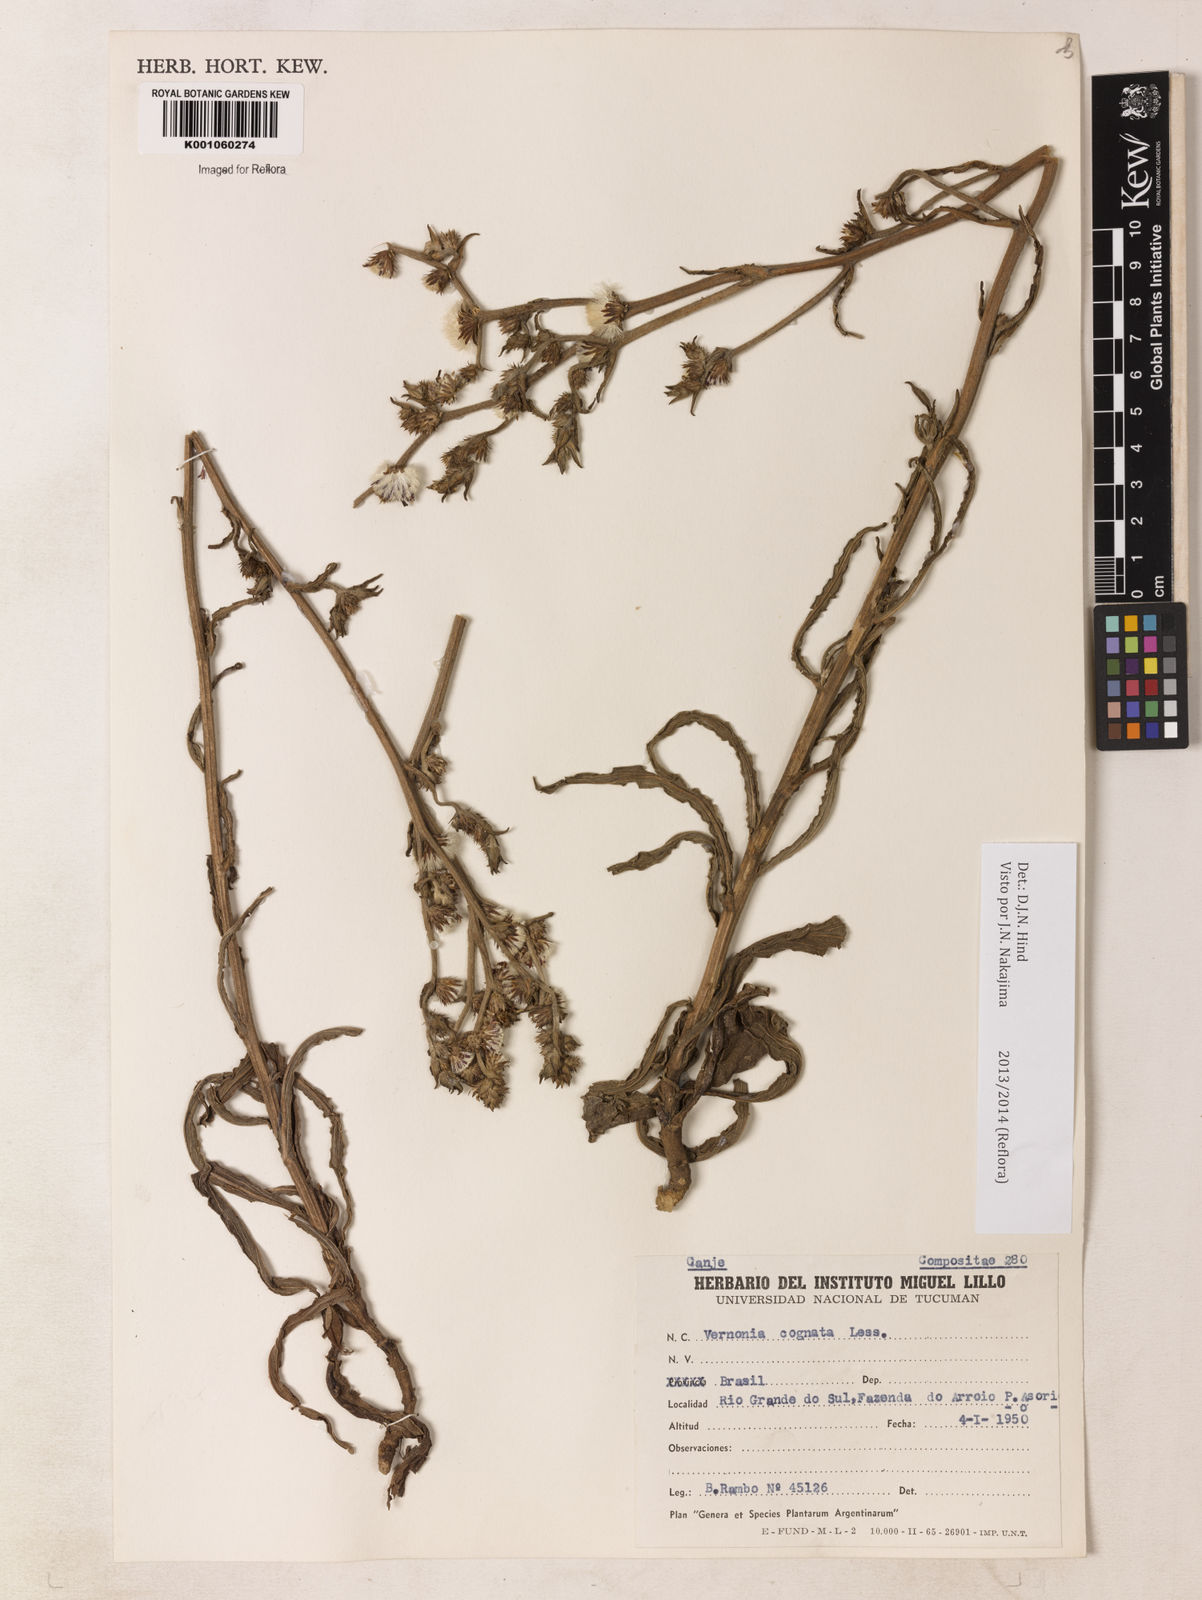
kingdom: Plantae
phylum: Tracheophyta
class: Magnoliopsida
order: Asterales
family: Asteraceae
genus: Chrysolaena
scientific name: Chrysolaena cognata
